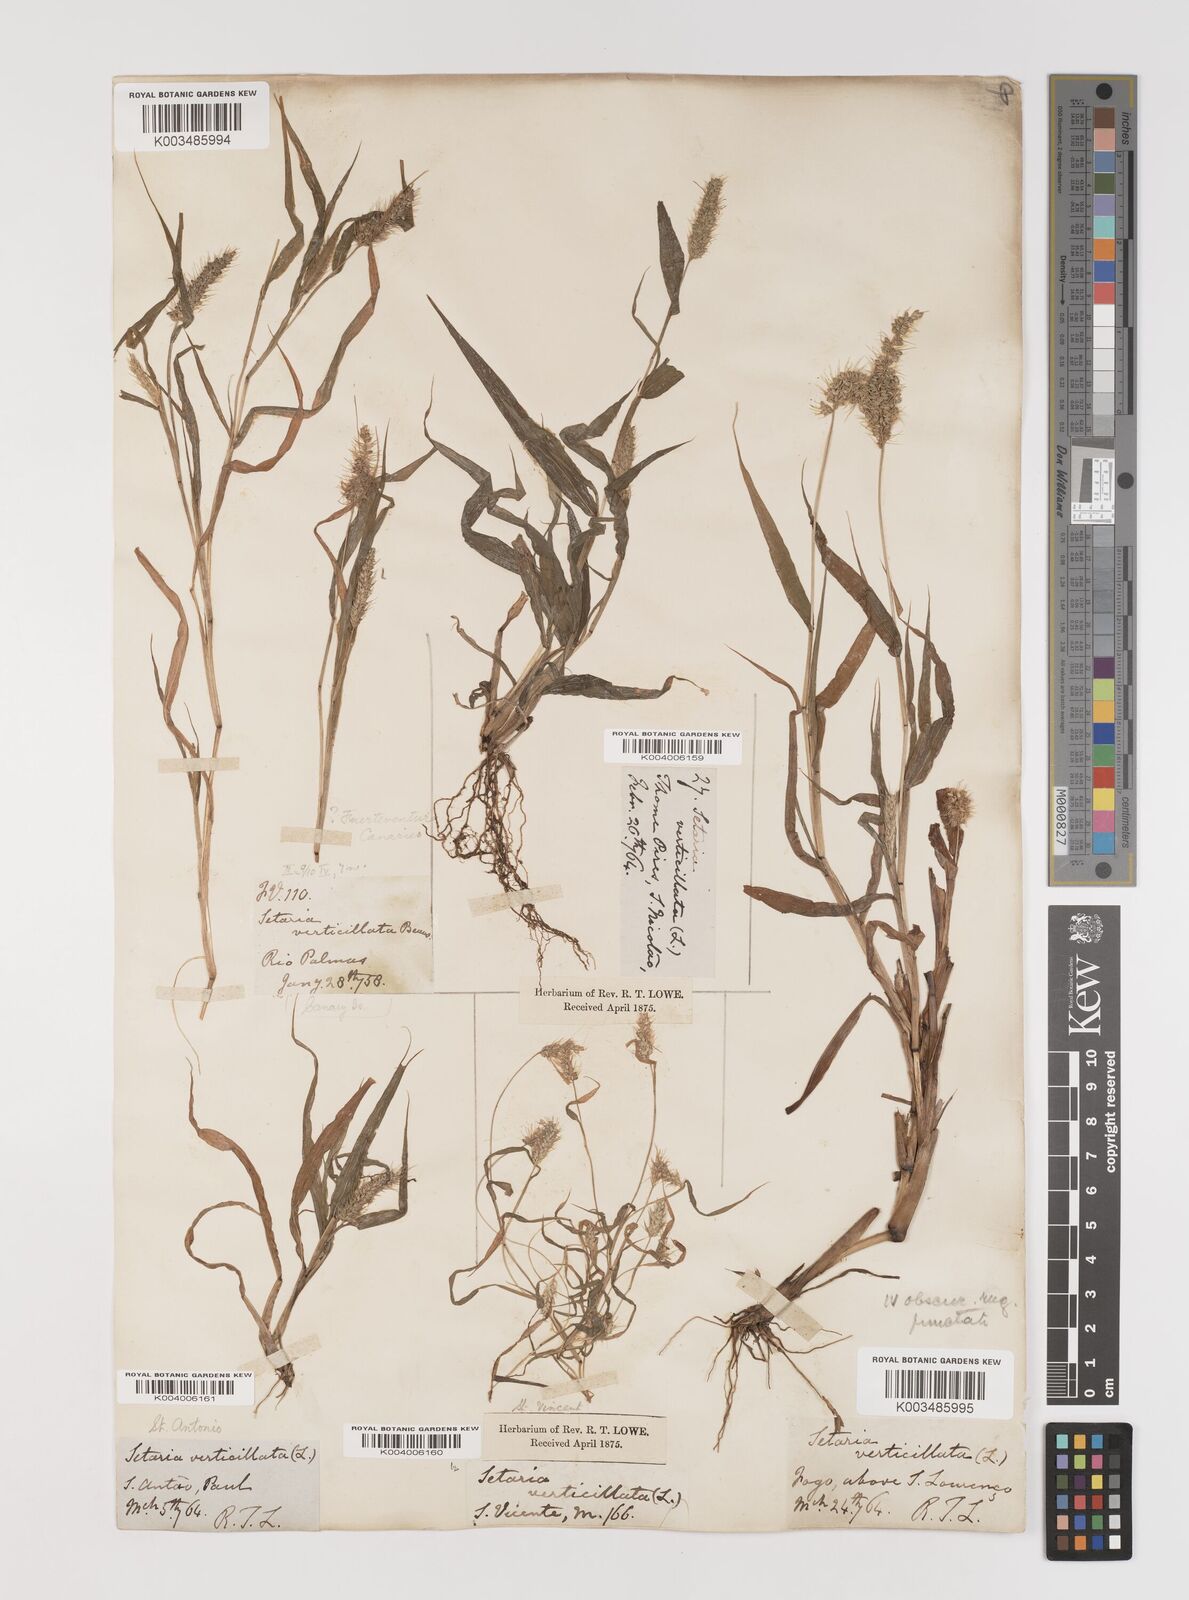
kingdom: Plantae
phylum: Tracheophyta
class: Liliopsida
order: Poales
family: Poaceae
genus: Setaria
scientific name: Setaria verticillata
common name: Hooked bristlegrass
